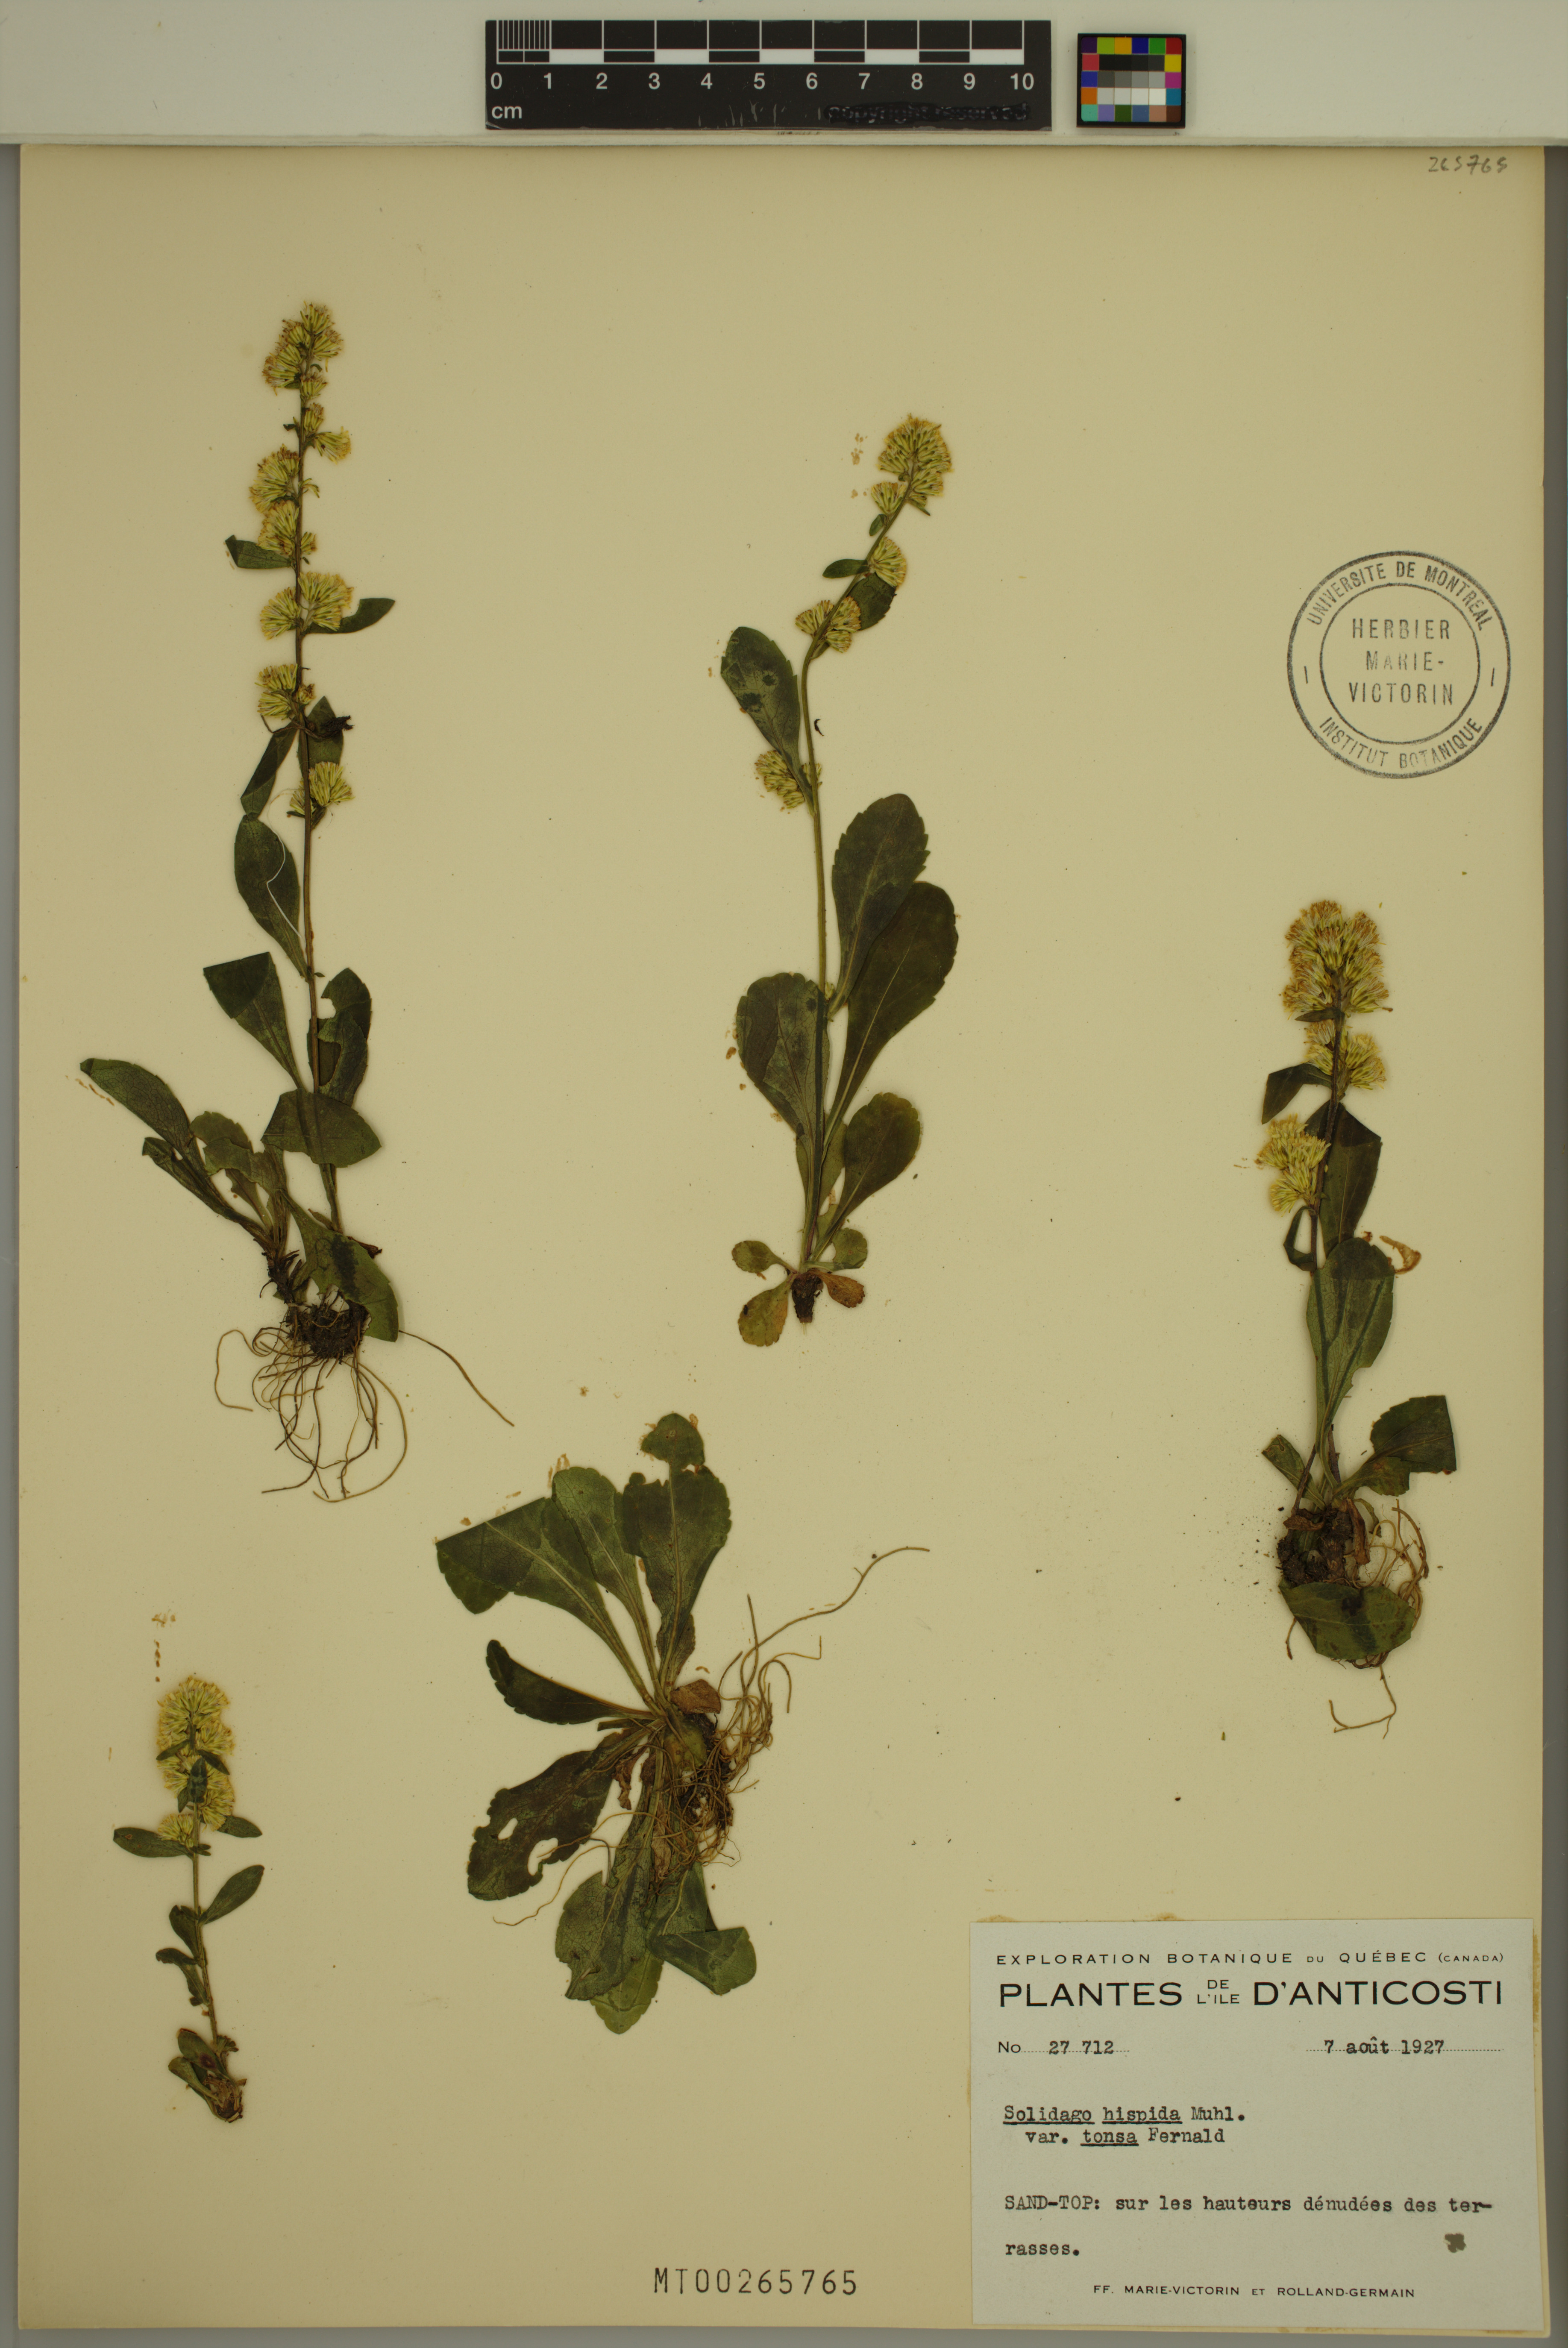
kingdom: Plantae
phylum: Tracheophyta
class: Magnoliopsida
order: Asterales
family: Asteraceae
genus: Solidago
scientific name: Solidago hispida
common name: Hairy goldenrod
